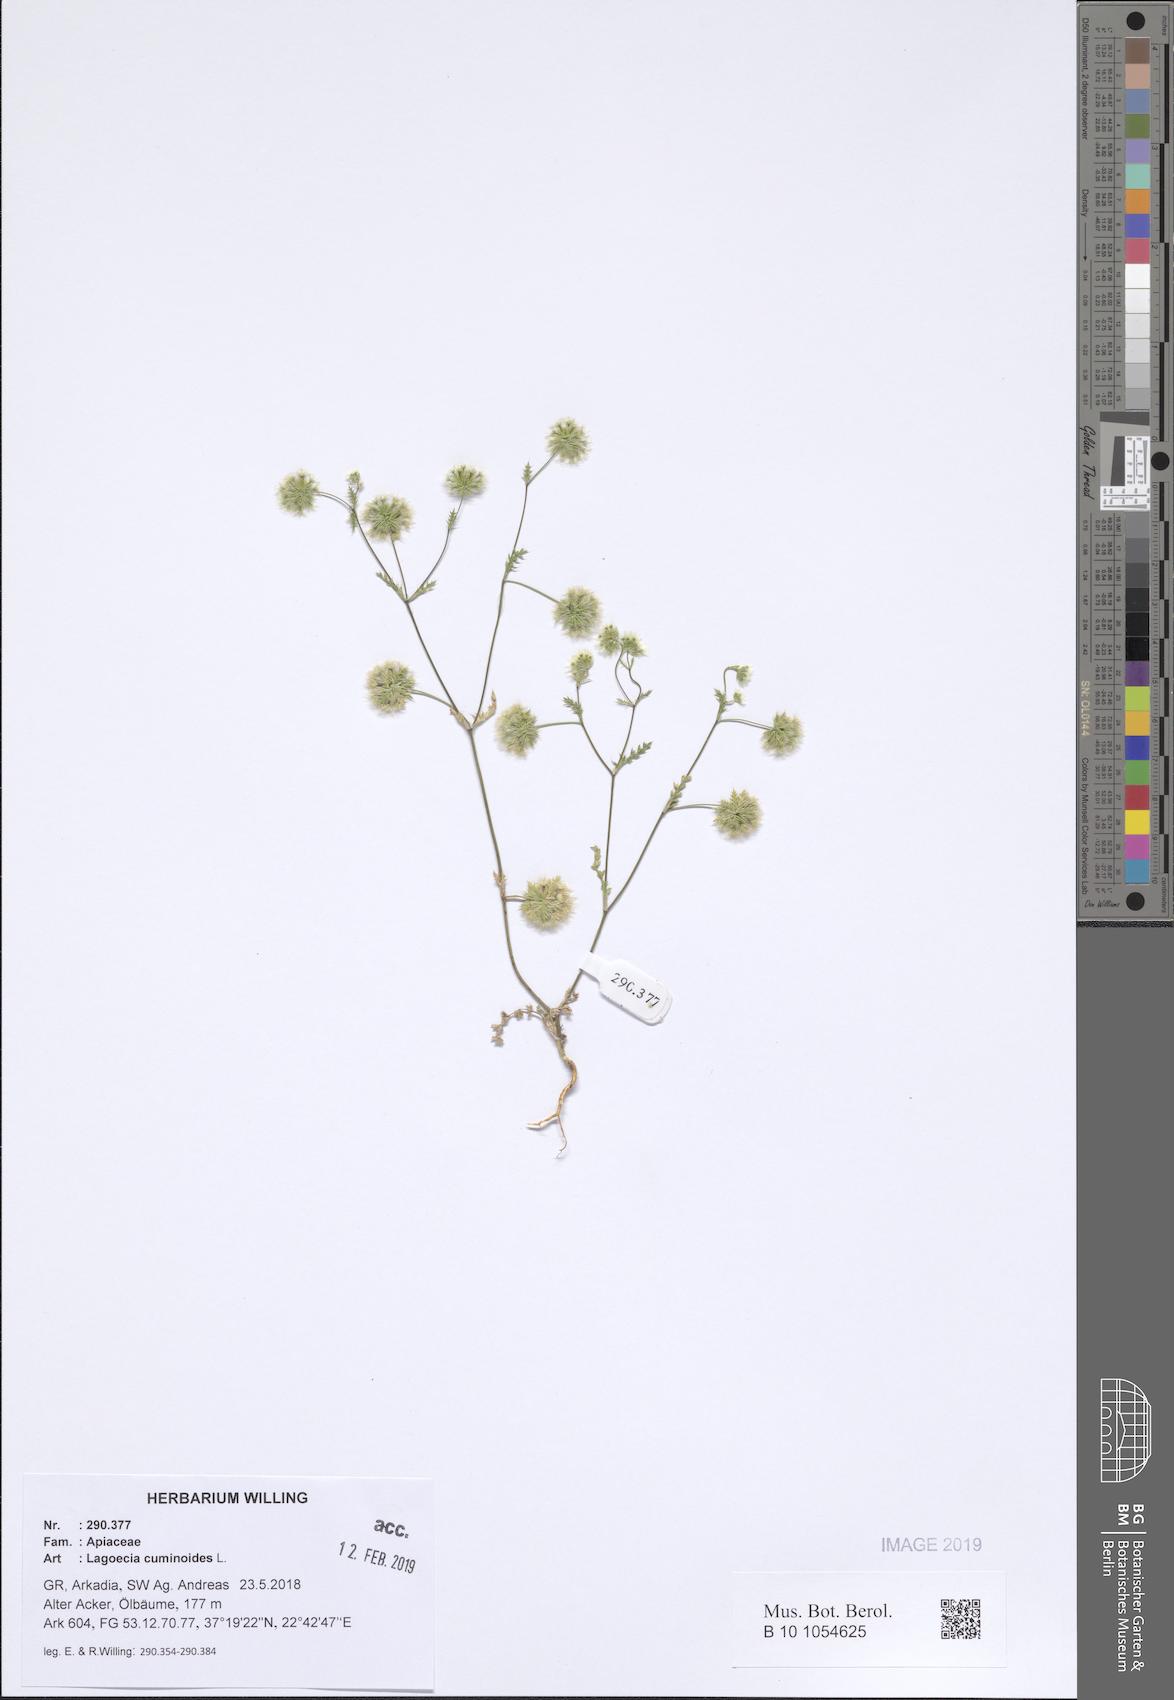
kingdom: Plantae
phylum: Tracheophyta
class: Magnoliopsida
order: Apiales
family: Apiaceae
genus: Lagoecia
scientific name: Lagoecia cuminoides
